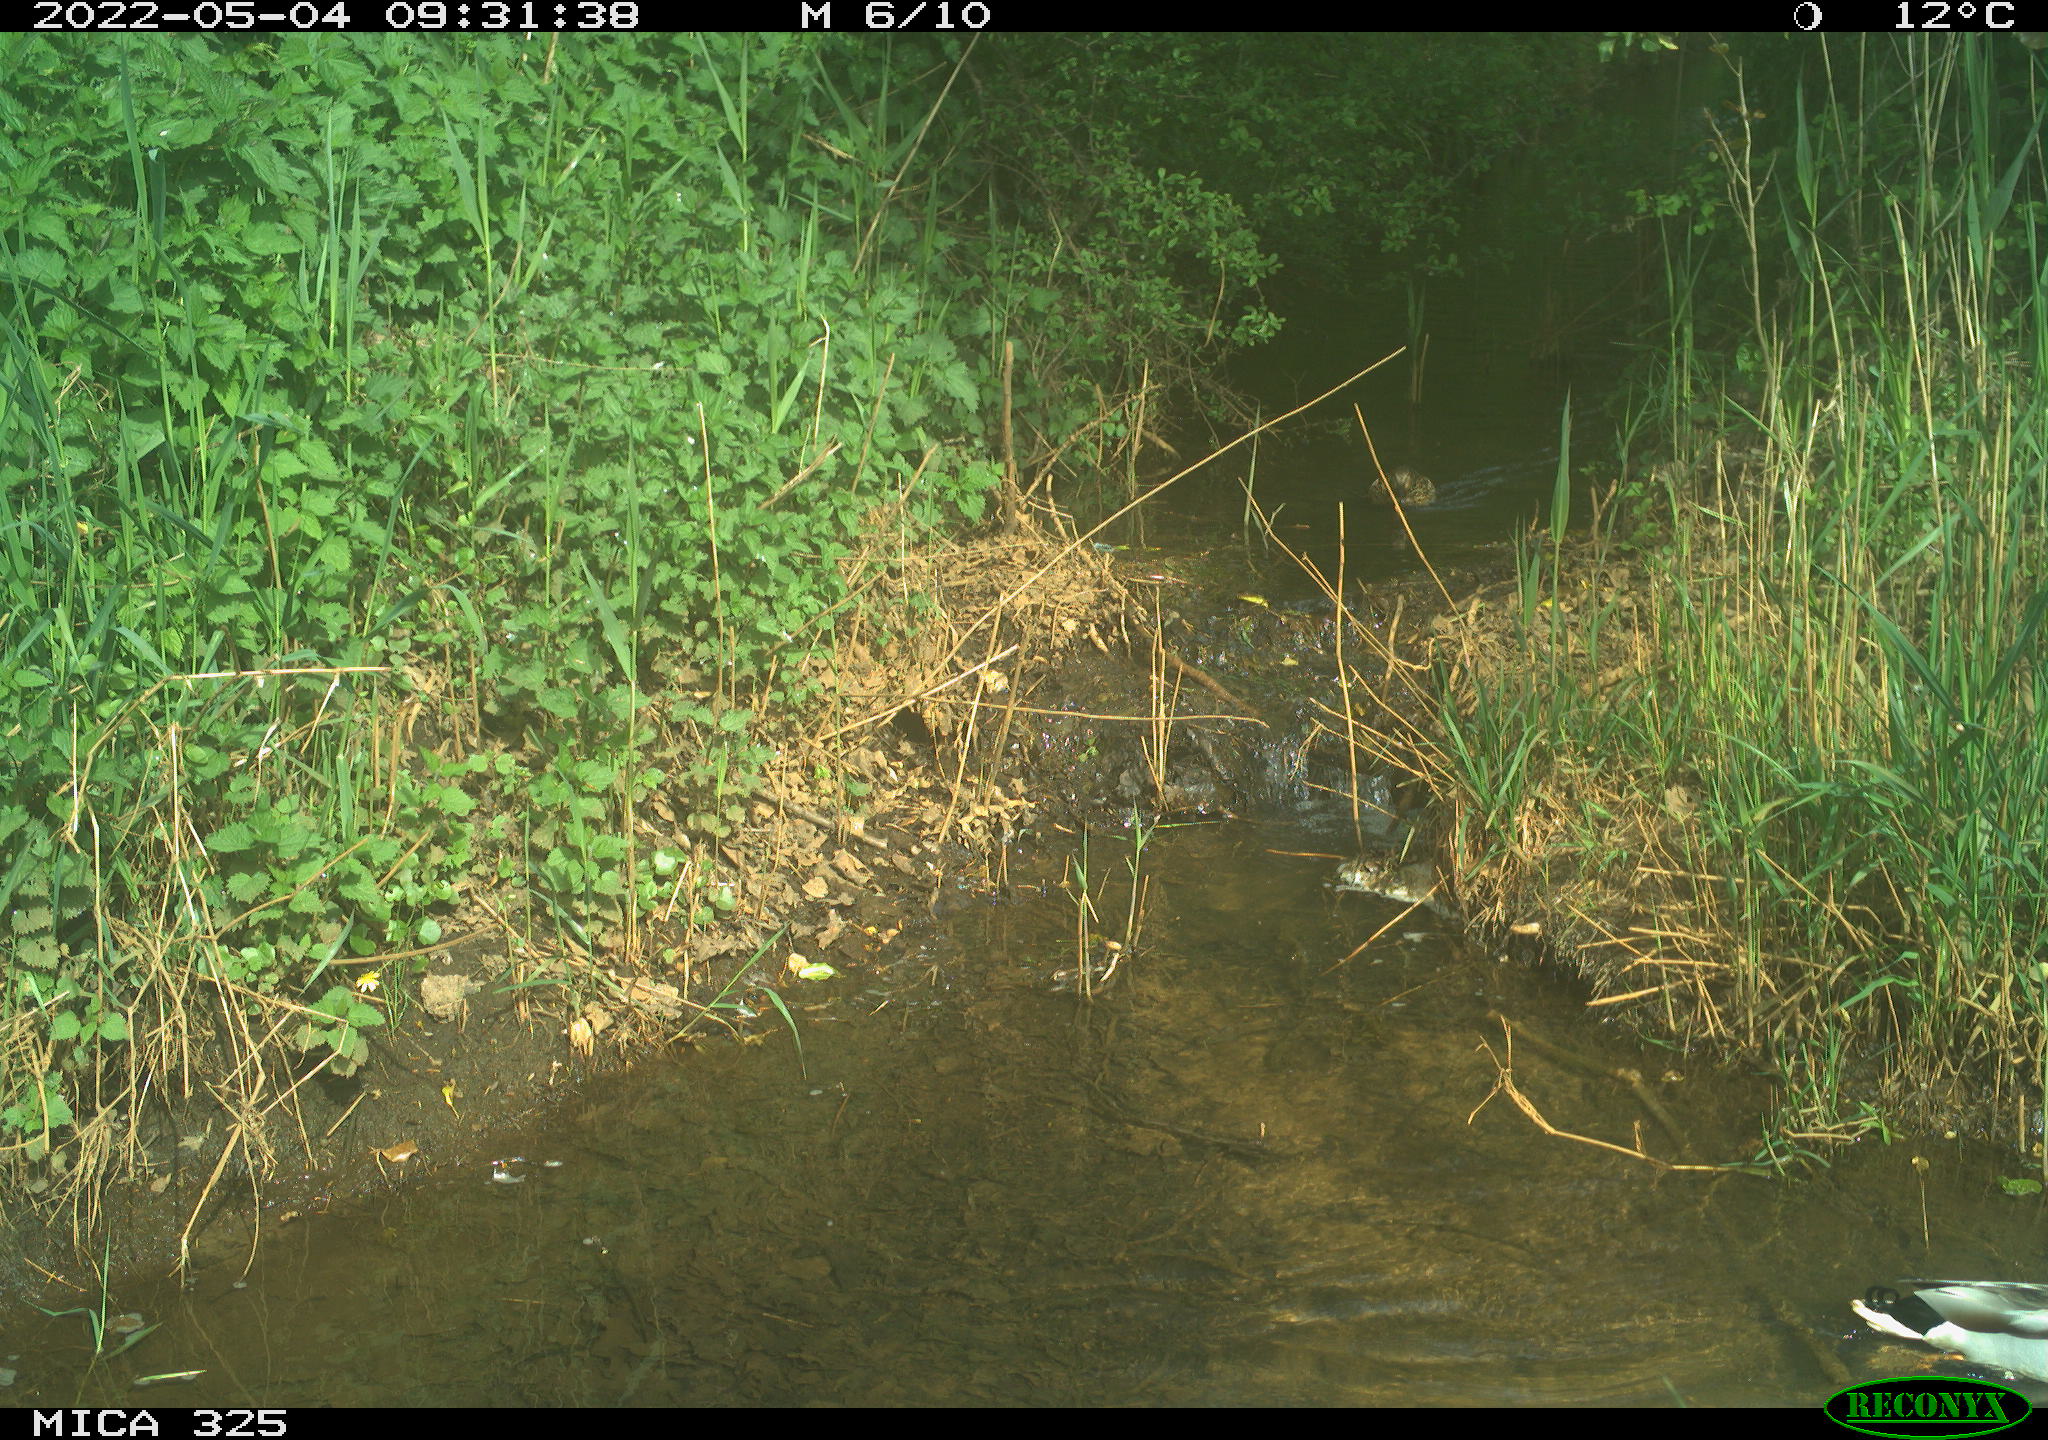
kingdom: Animalia
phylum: Chordata
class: Aves
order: Anseriformes
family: Anatidae
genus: Anas
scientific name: Anas platyrhynchos
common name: Mallard
